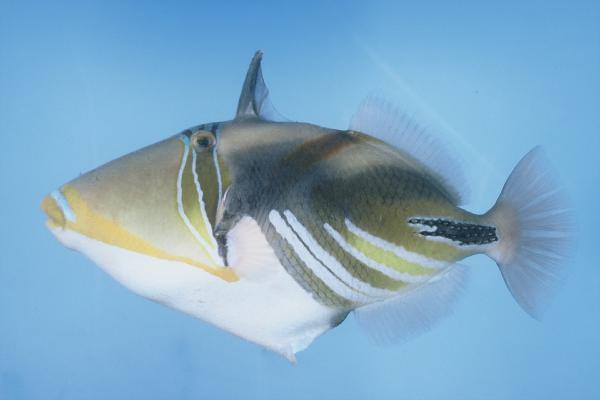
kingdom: Animalia
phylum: Chordata
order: Tetraodontiformes
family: Balistidae
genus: Rhinecanthus
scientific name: Rhinecanthus aculeatus
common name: White-banded triggerfish
